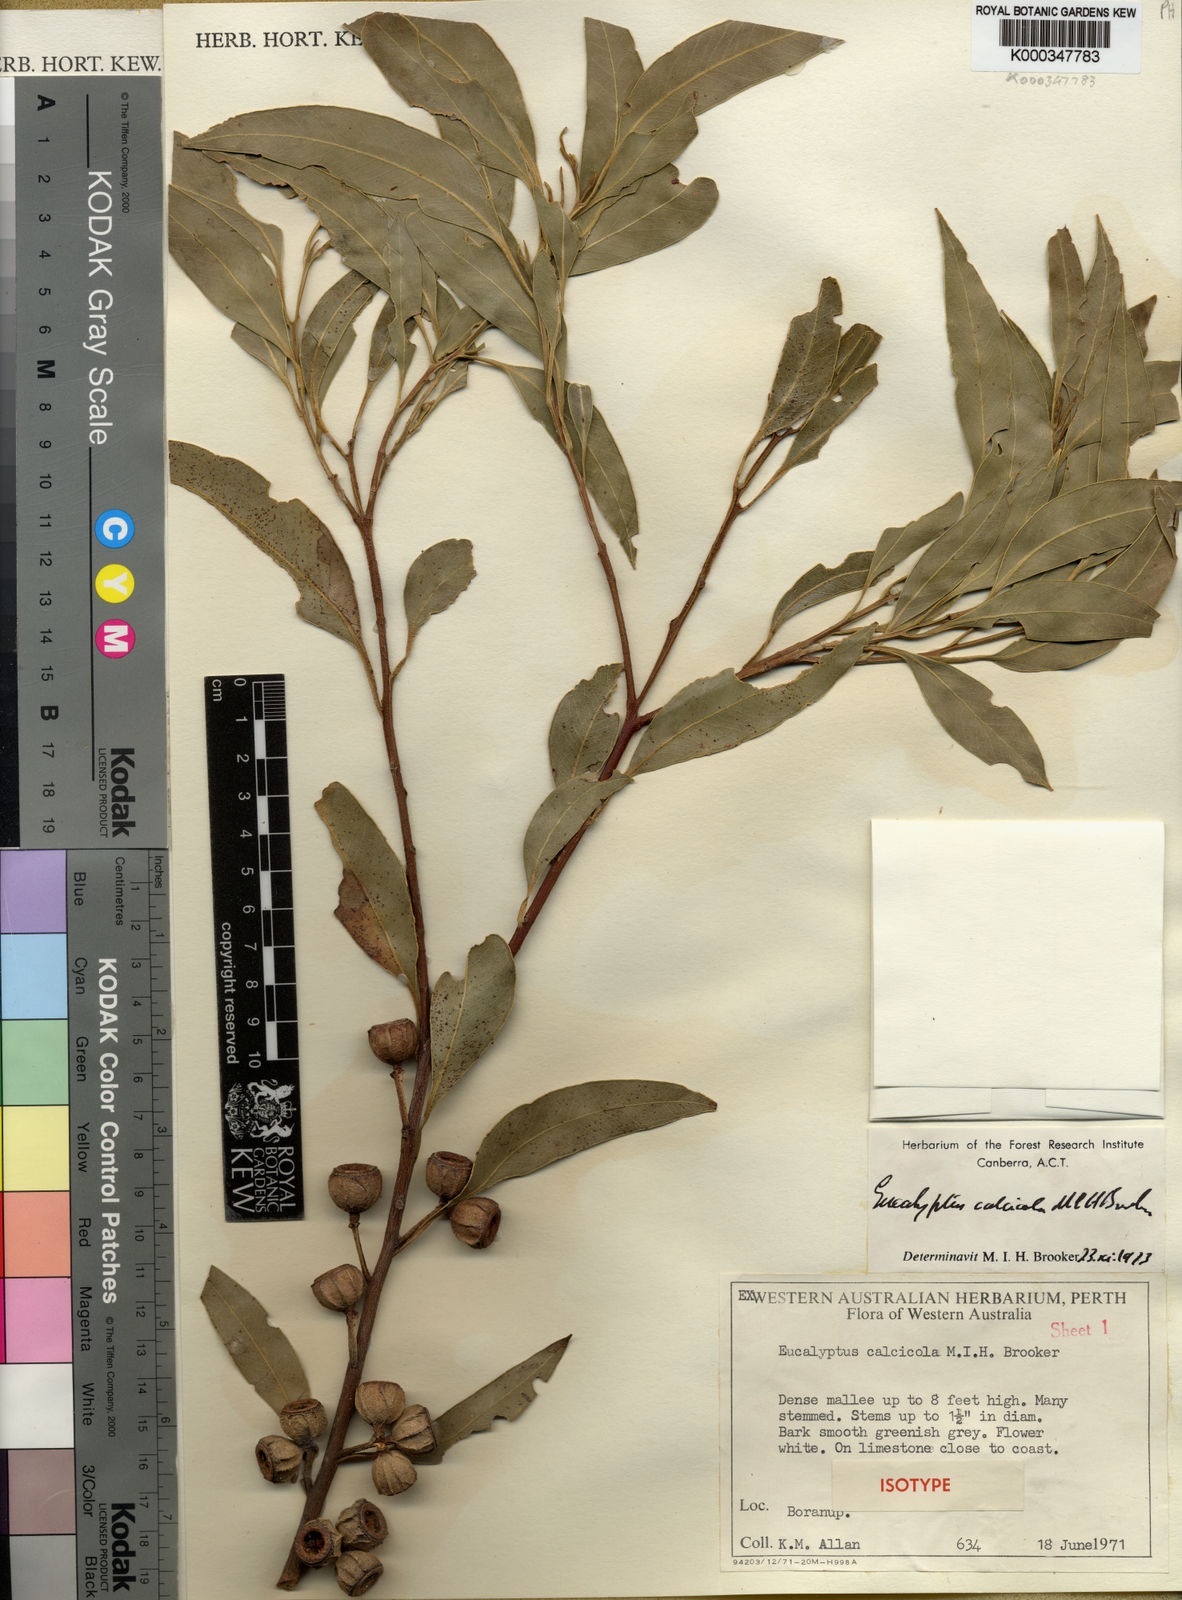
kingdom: Plantae
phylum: Tracheophyta
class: Magnoliopsida
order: Myrtales
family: Myrtaceae
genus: Eucalyptus
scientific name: Eucalyptus calcicola
